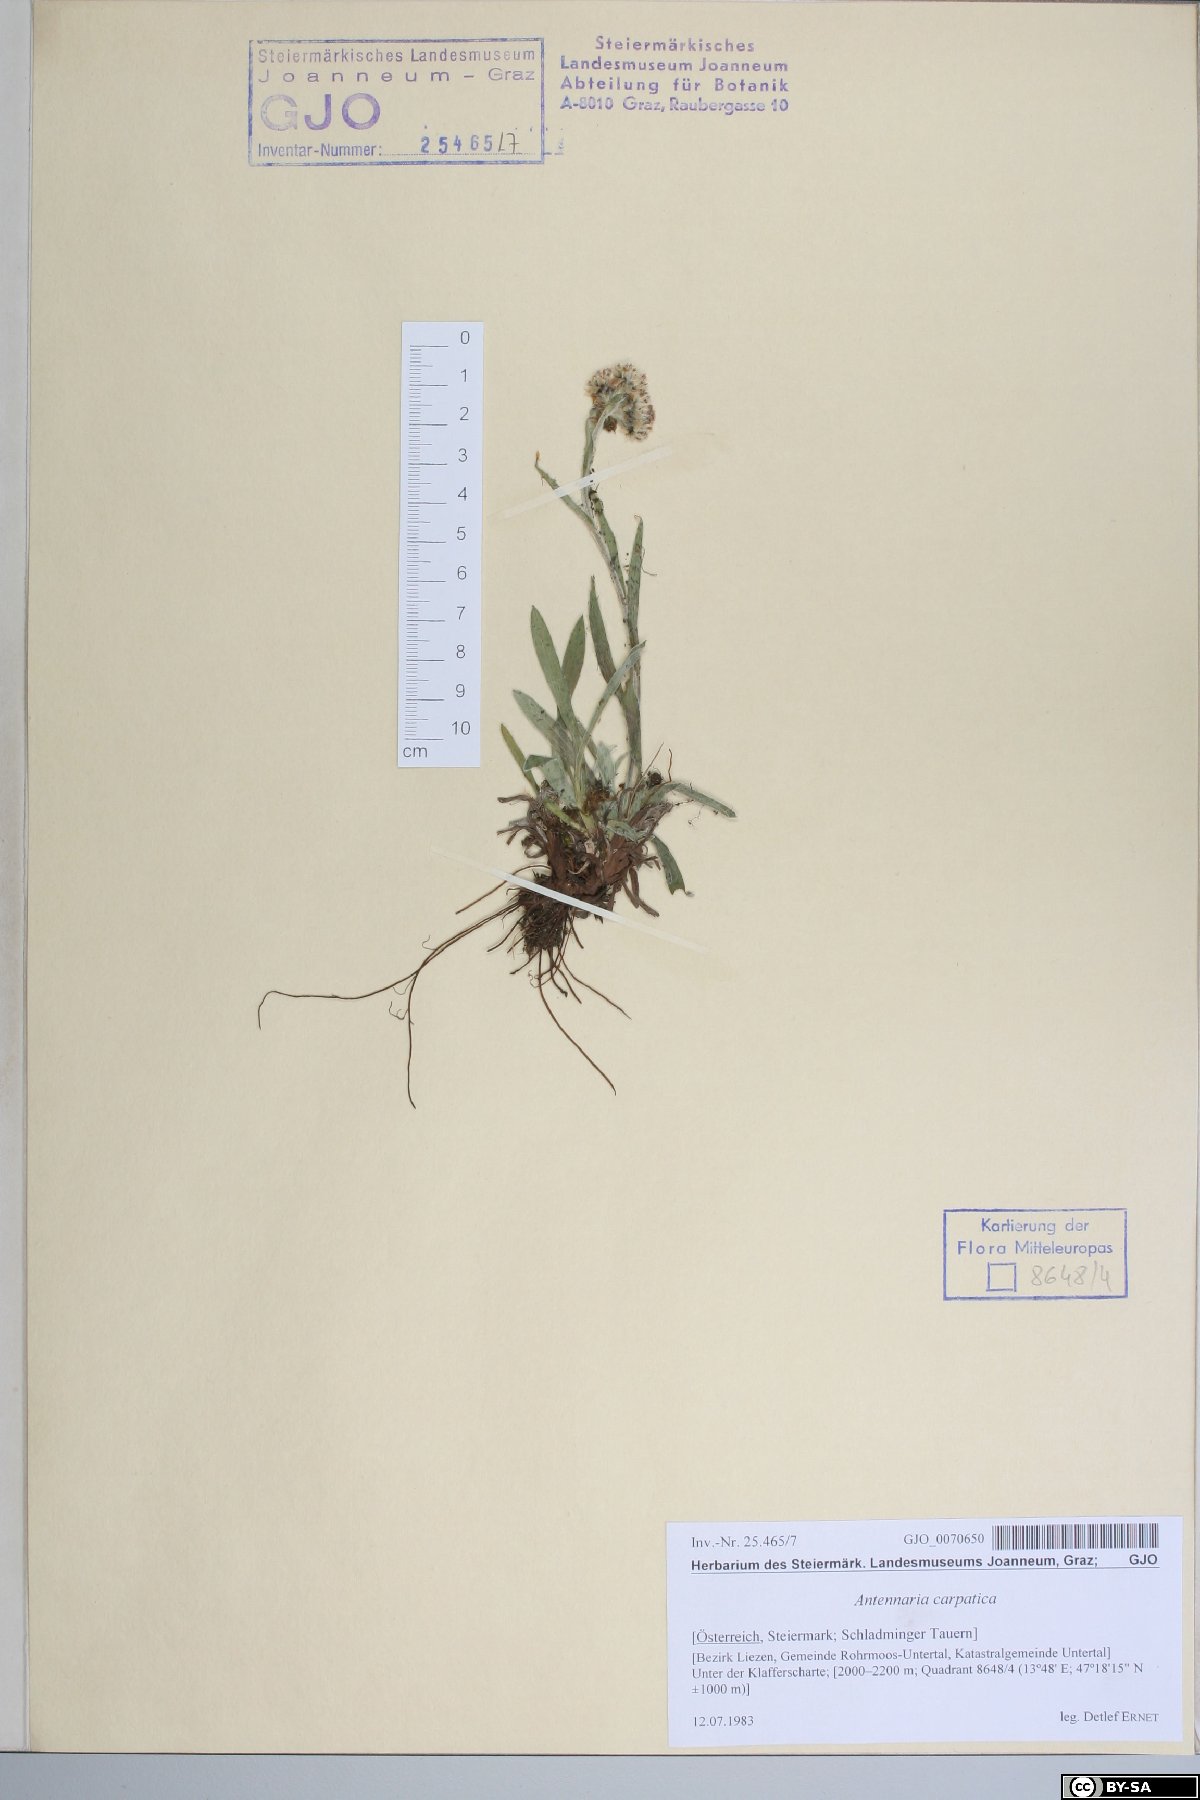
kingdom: Plantae
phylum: Tracheophyta
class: Magnoliopsida
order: Asterales
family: Asteraceae
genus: Antennaria
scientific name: Antennaria carpatica
